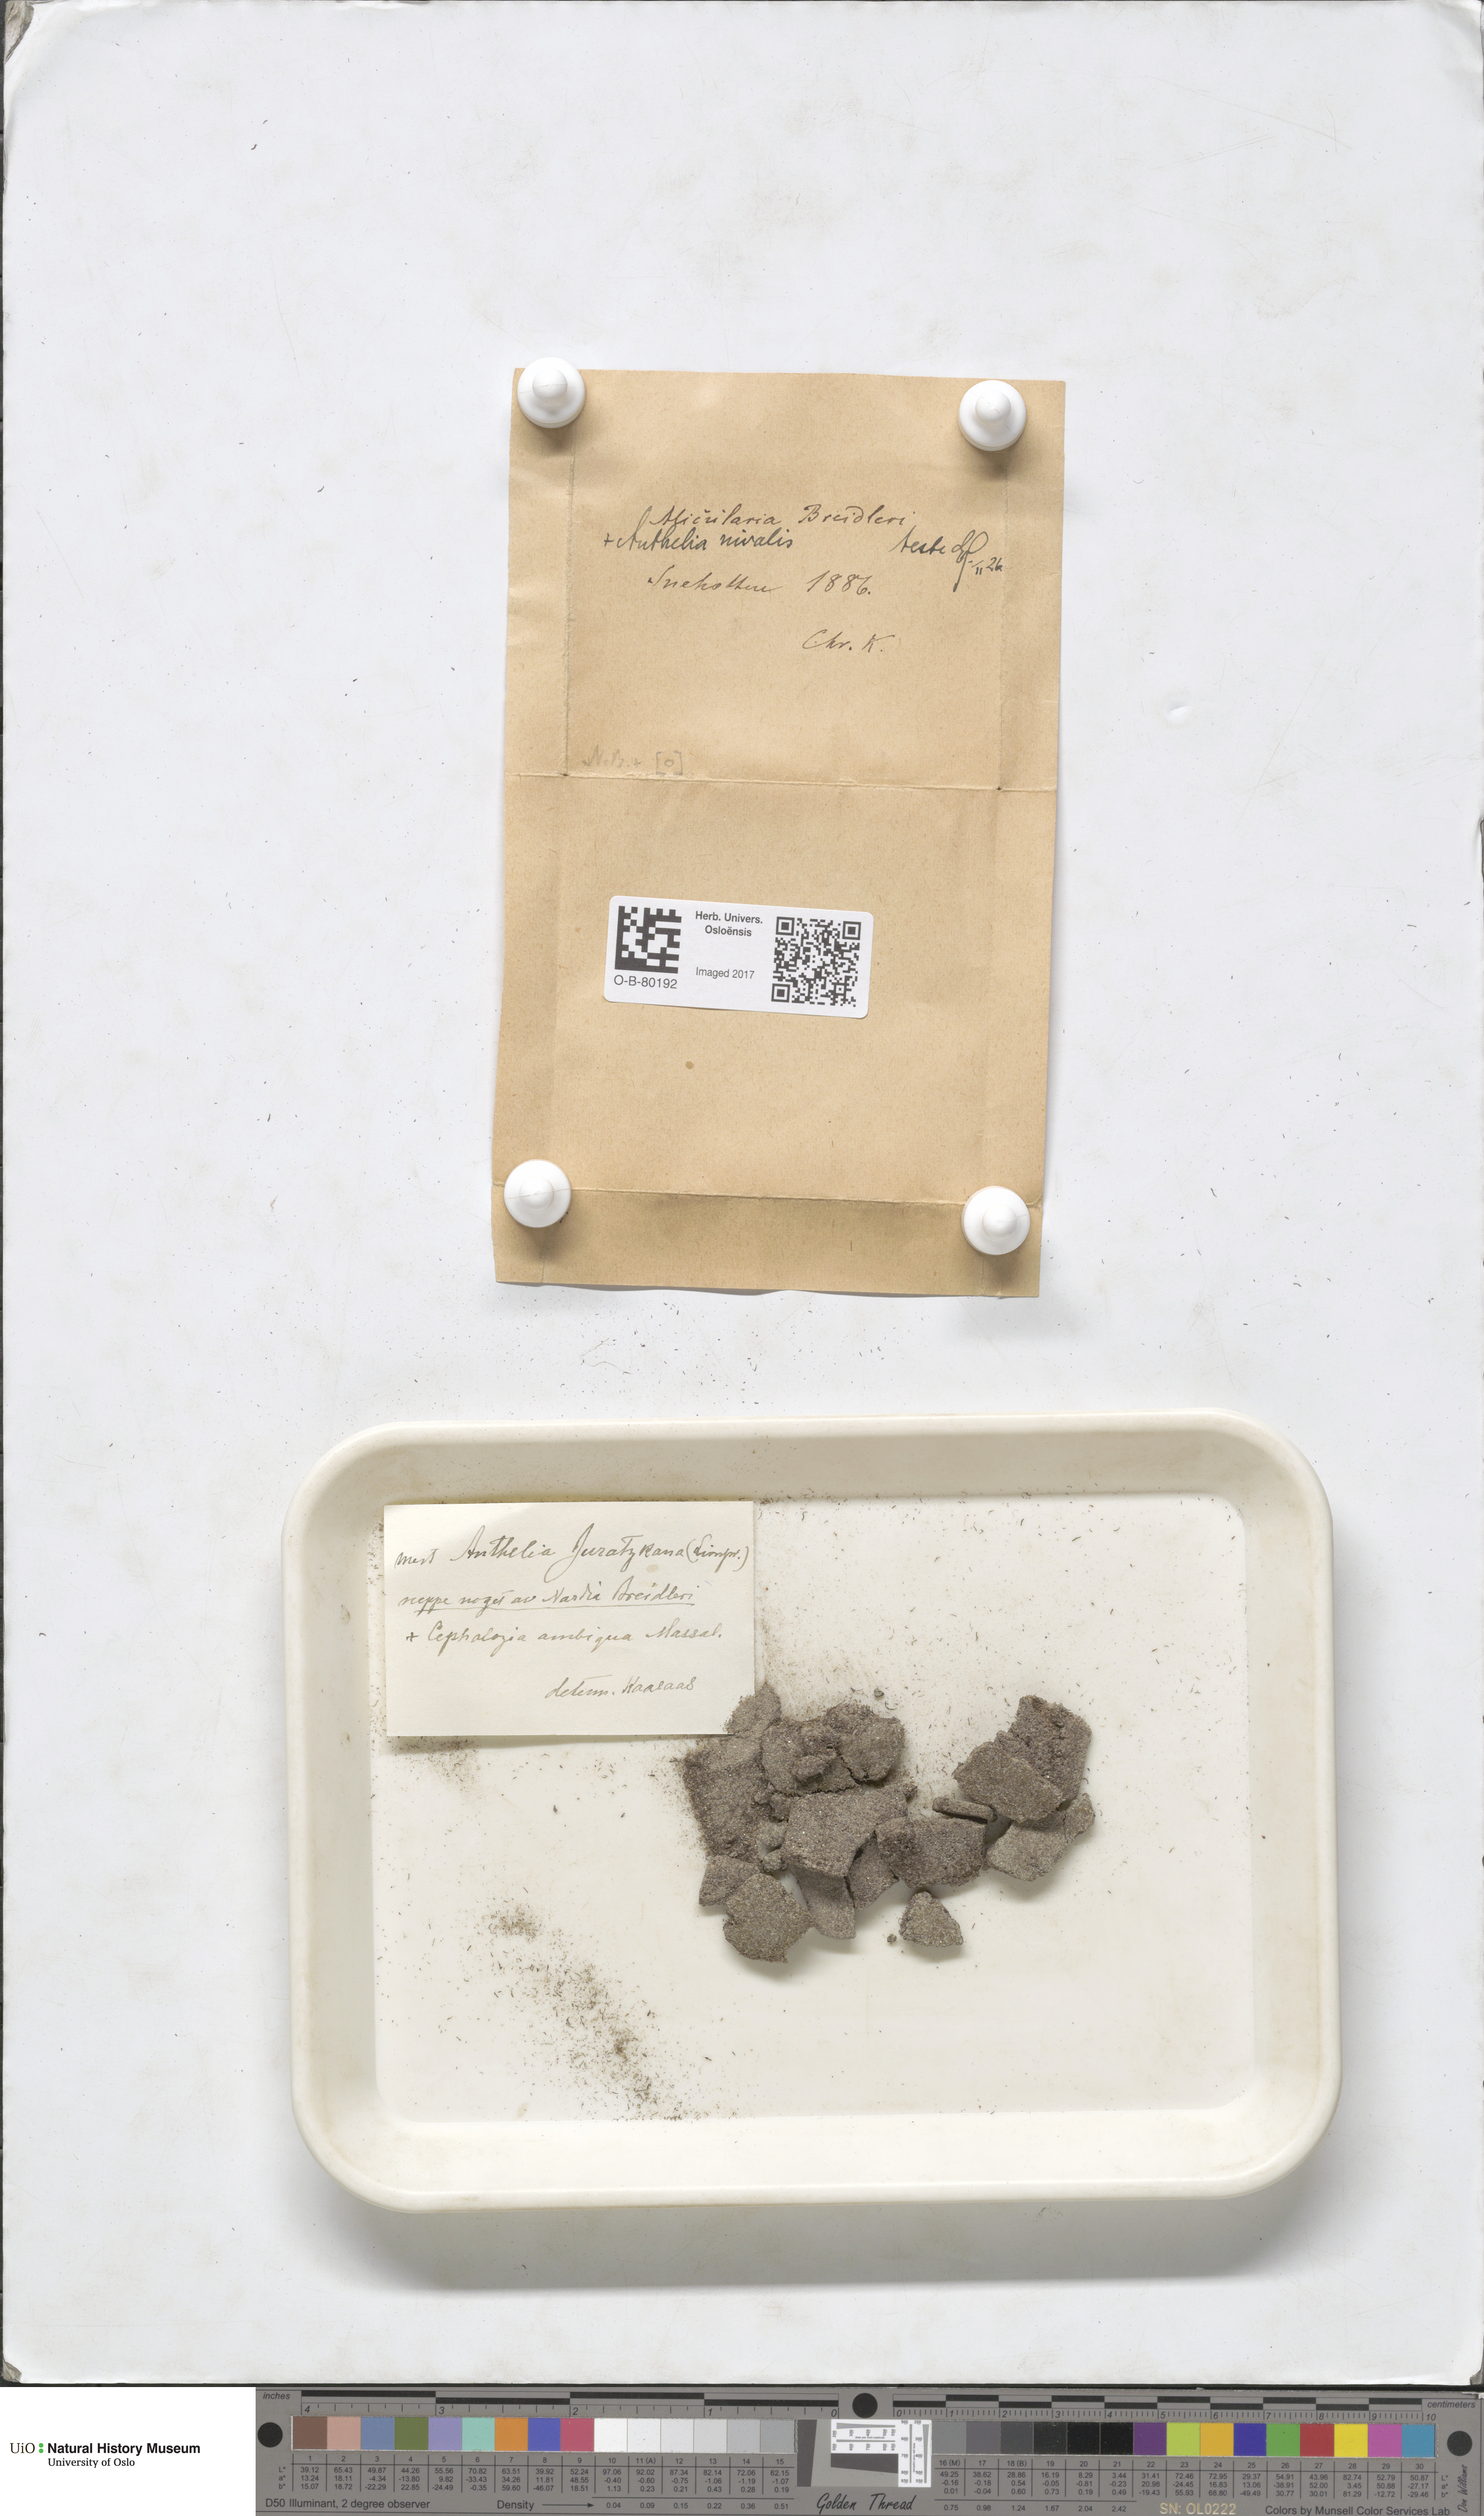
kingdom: Plantae
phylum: Marchantiophyta
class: Jungermanniopsida
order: Jungermanniales
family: Antheliaceae
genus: Anthelia
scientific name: Anthelia juratzkana
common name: Juratzka s silverwort
